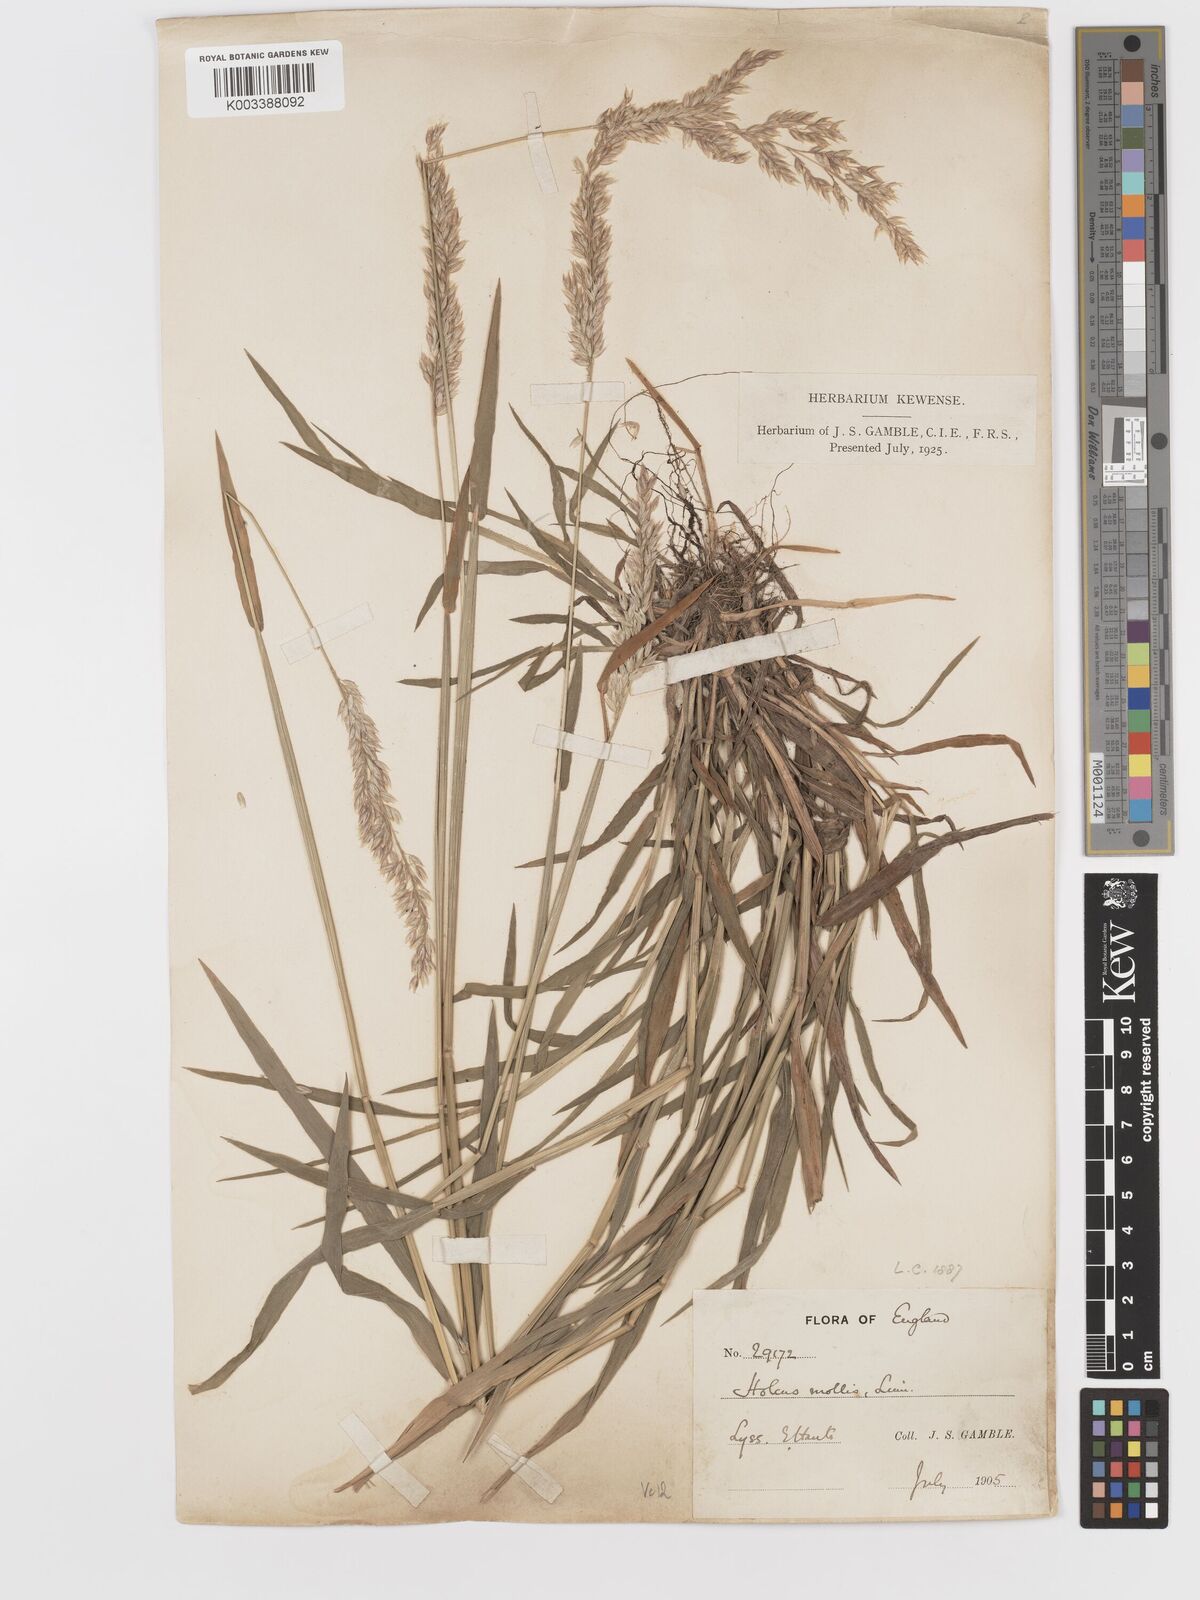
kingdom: Plantae
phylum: Tracheophyta
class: Liliopsida
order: Poales
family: Poaceae
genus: Holcus
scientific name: Holcus mollis
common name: Creeping velvetgrass
